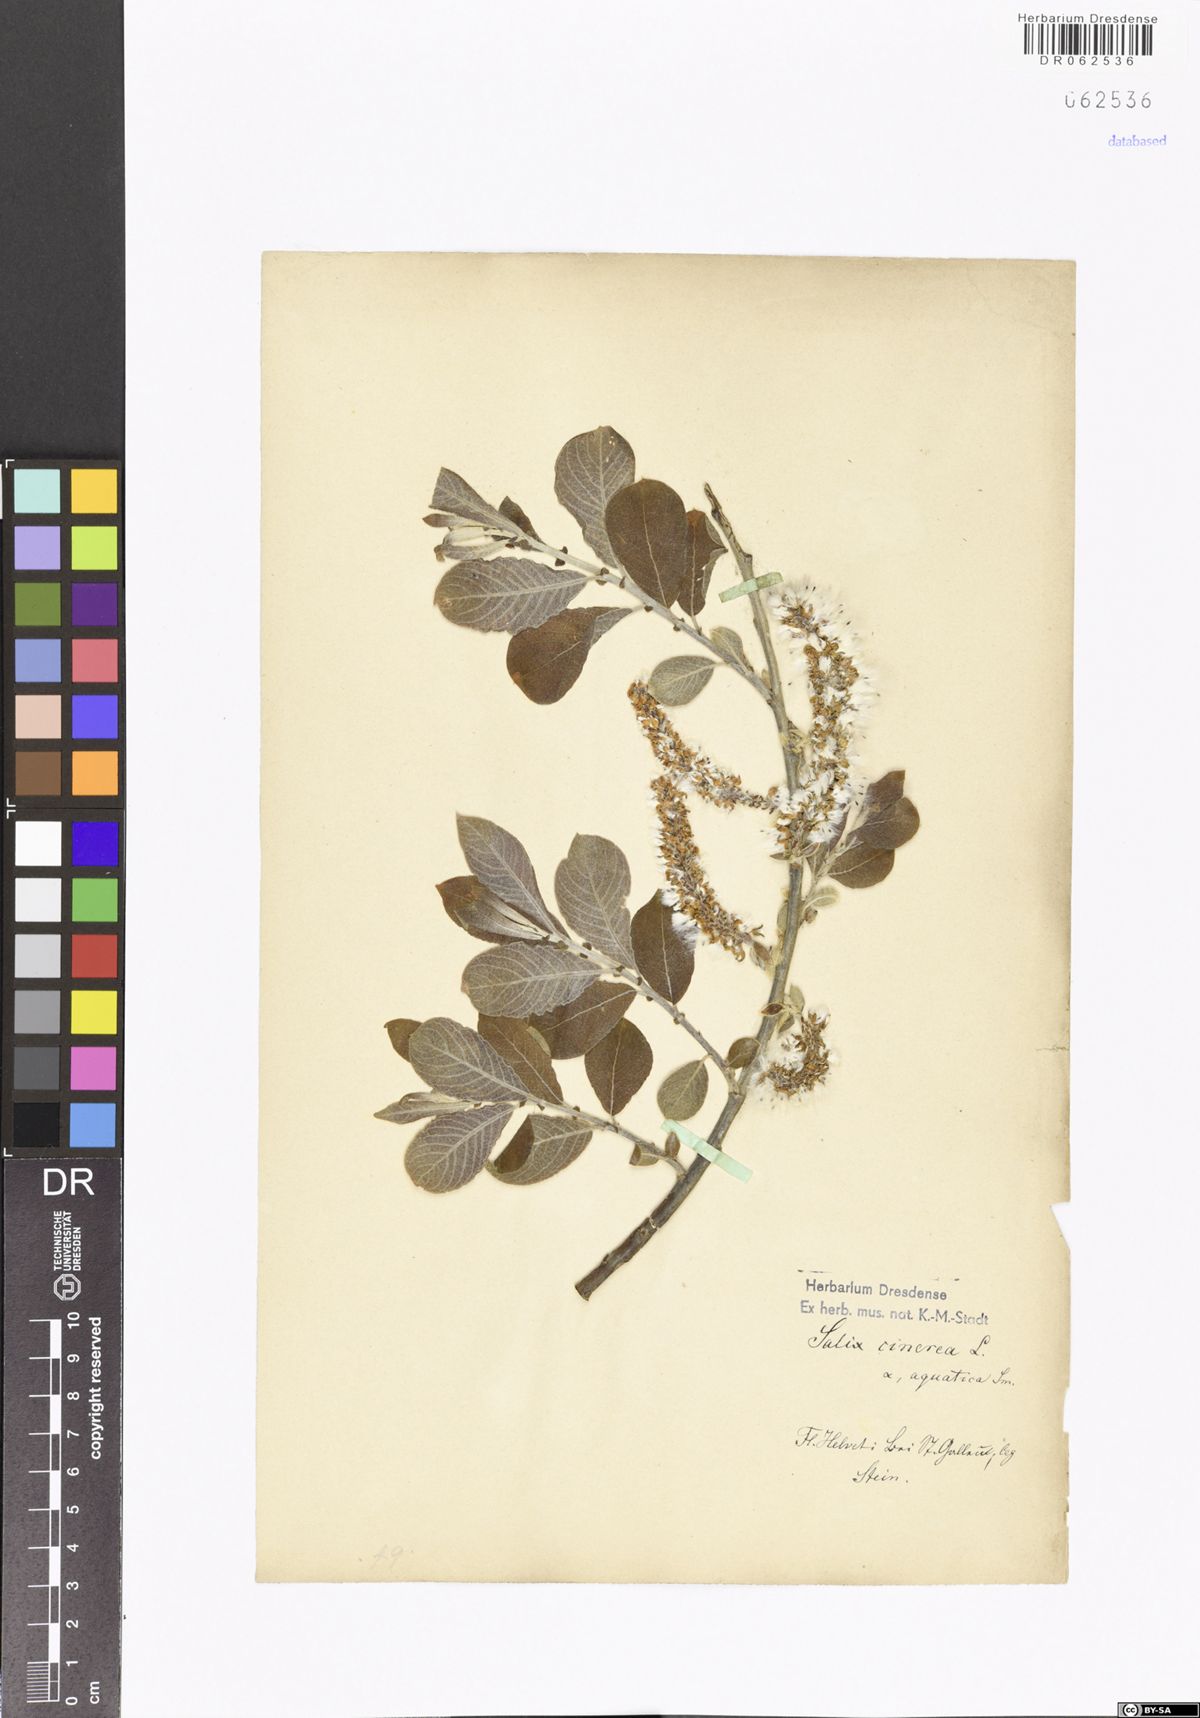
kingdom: Plantae
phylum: Tracheophyta
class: Magnoliopsida
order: Malpighiales
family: Salicaceae
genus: Salix
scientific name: Salix cinerea
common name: Common sallow
